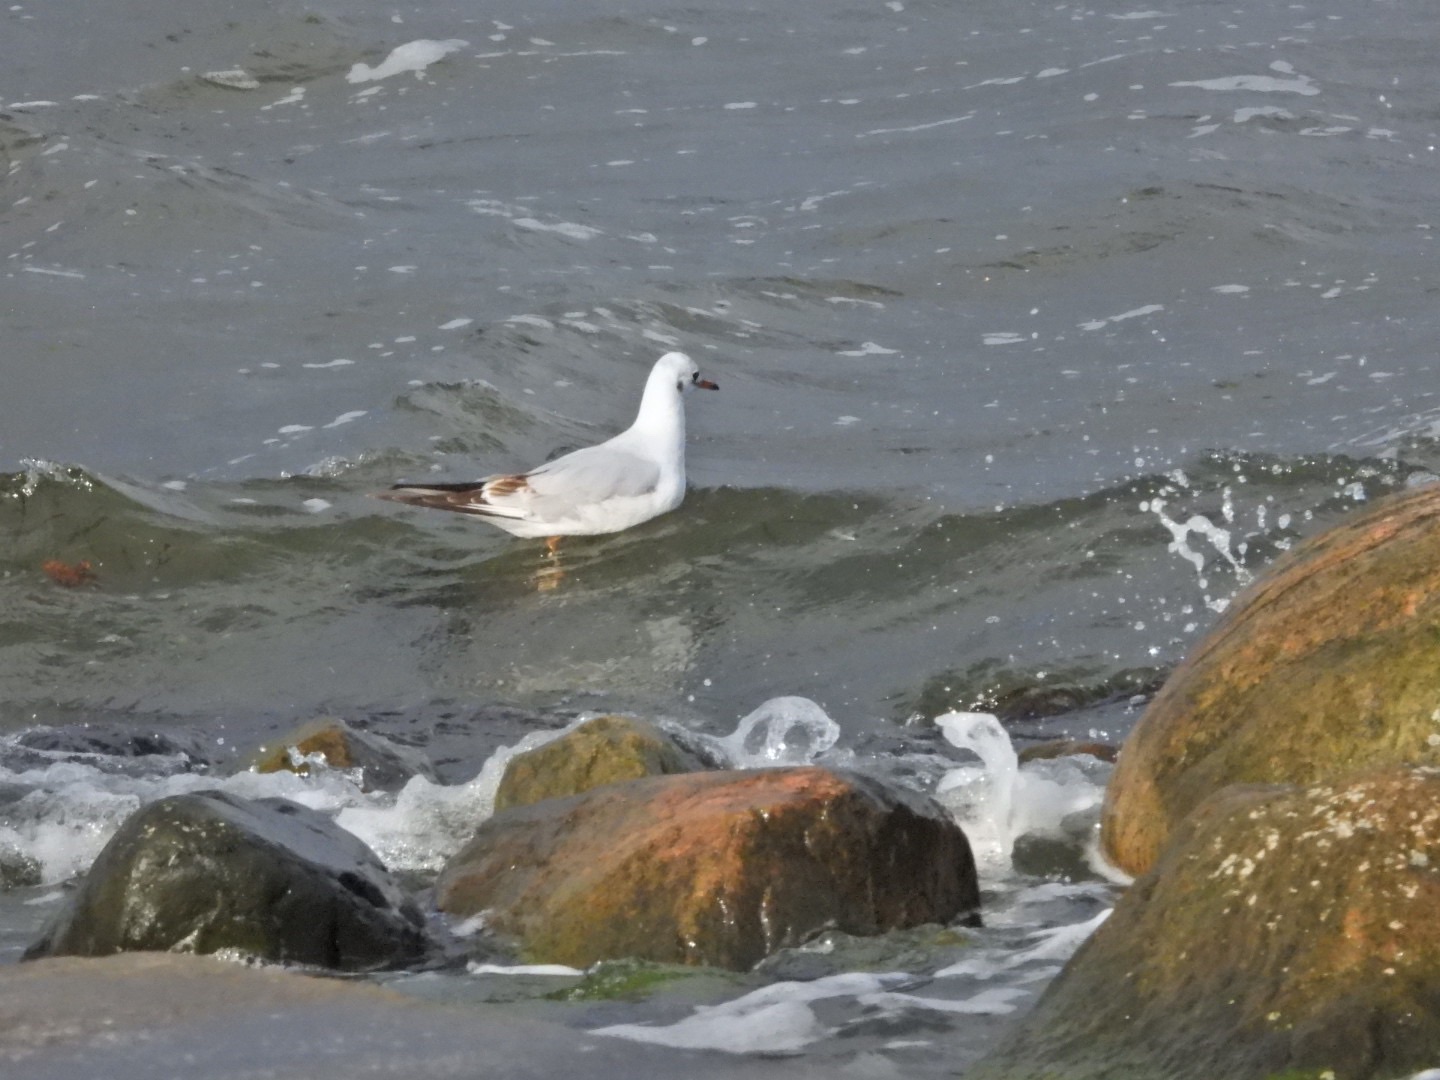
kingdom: Animalia
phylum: Chordata
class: Aves
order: Charadriiformes
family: Laridae
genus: Chroicocephalus
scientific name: Chroicocephalus ridibundus
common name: Hættemåge
